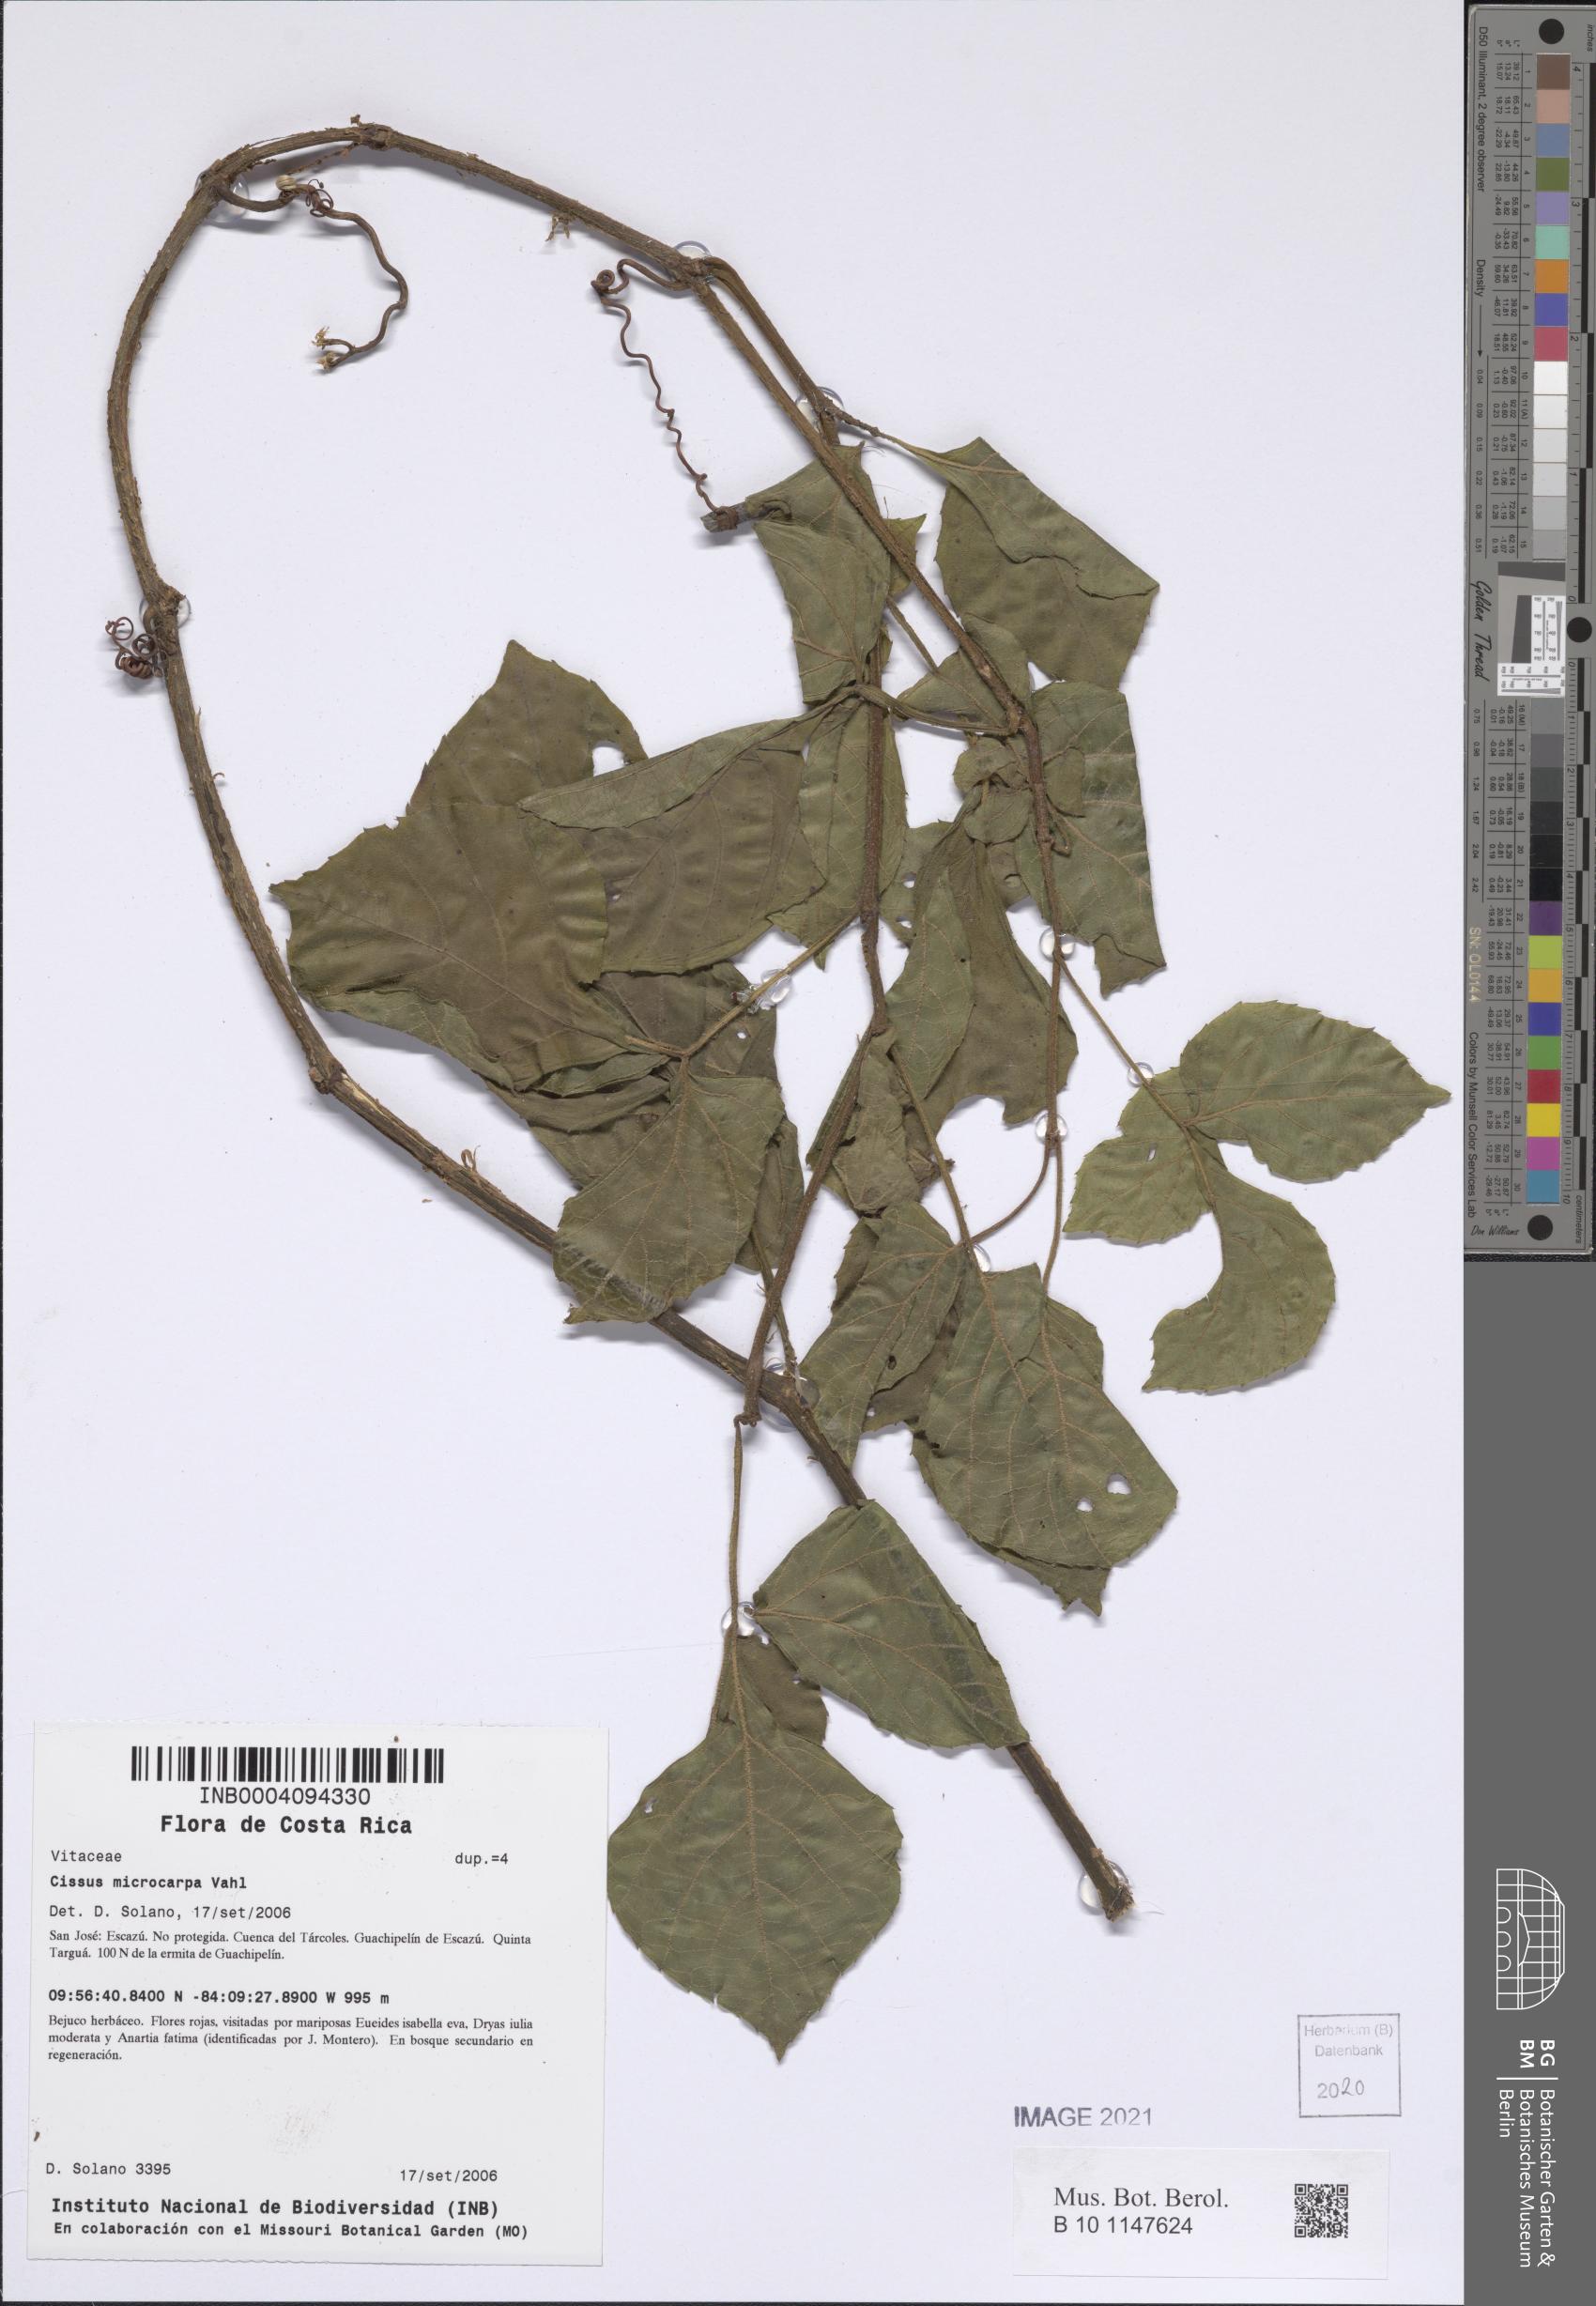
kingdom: Plantae
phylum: Tracheophyta
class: Magnoliopsida
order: Vitales
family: Vitaceae
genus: Cissus
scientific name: Cissus microcarpa
